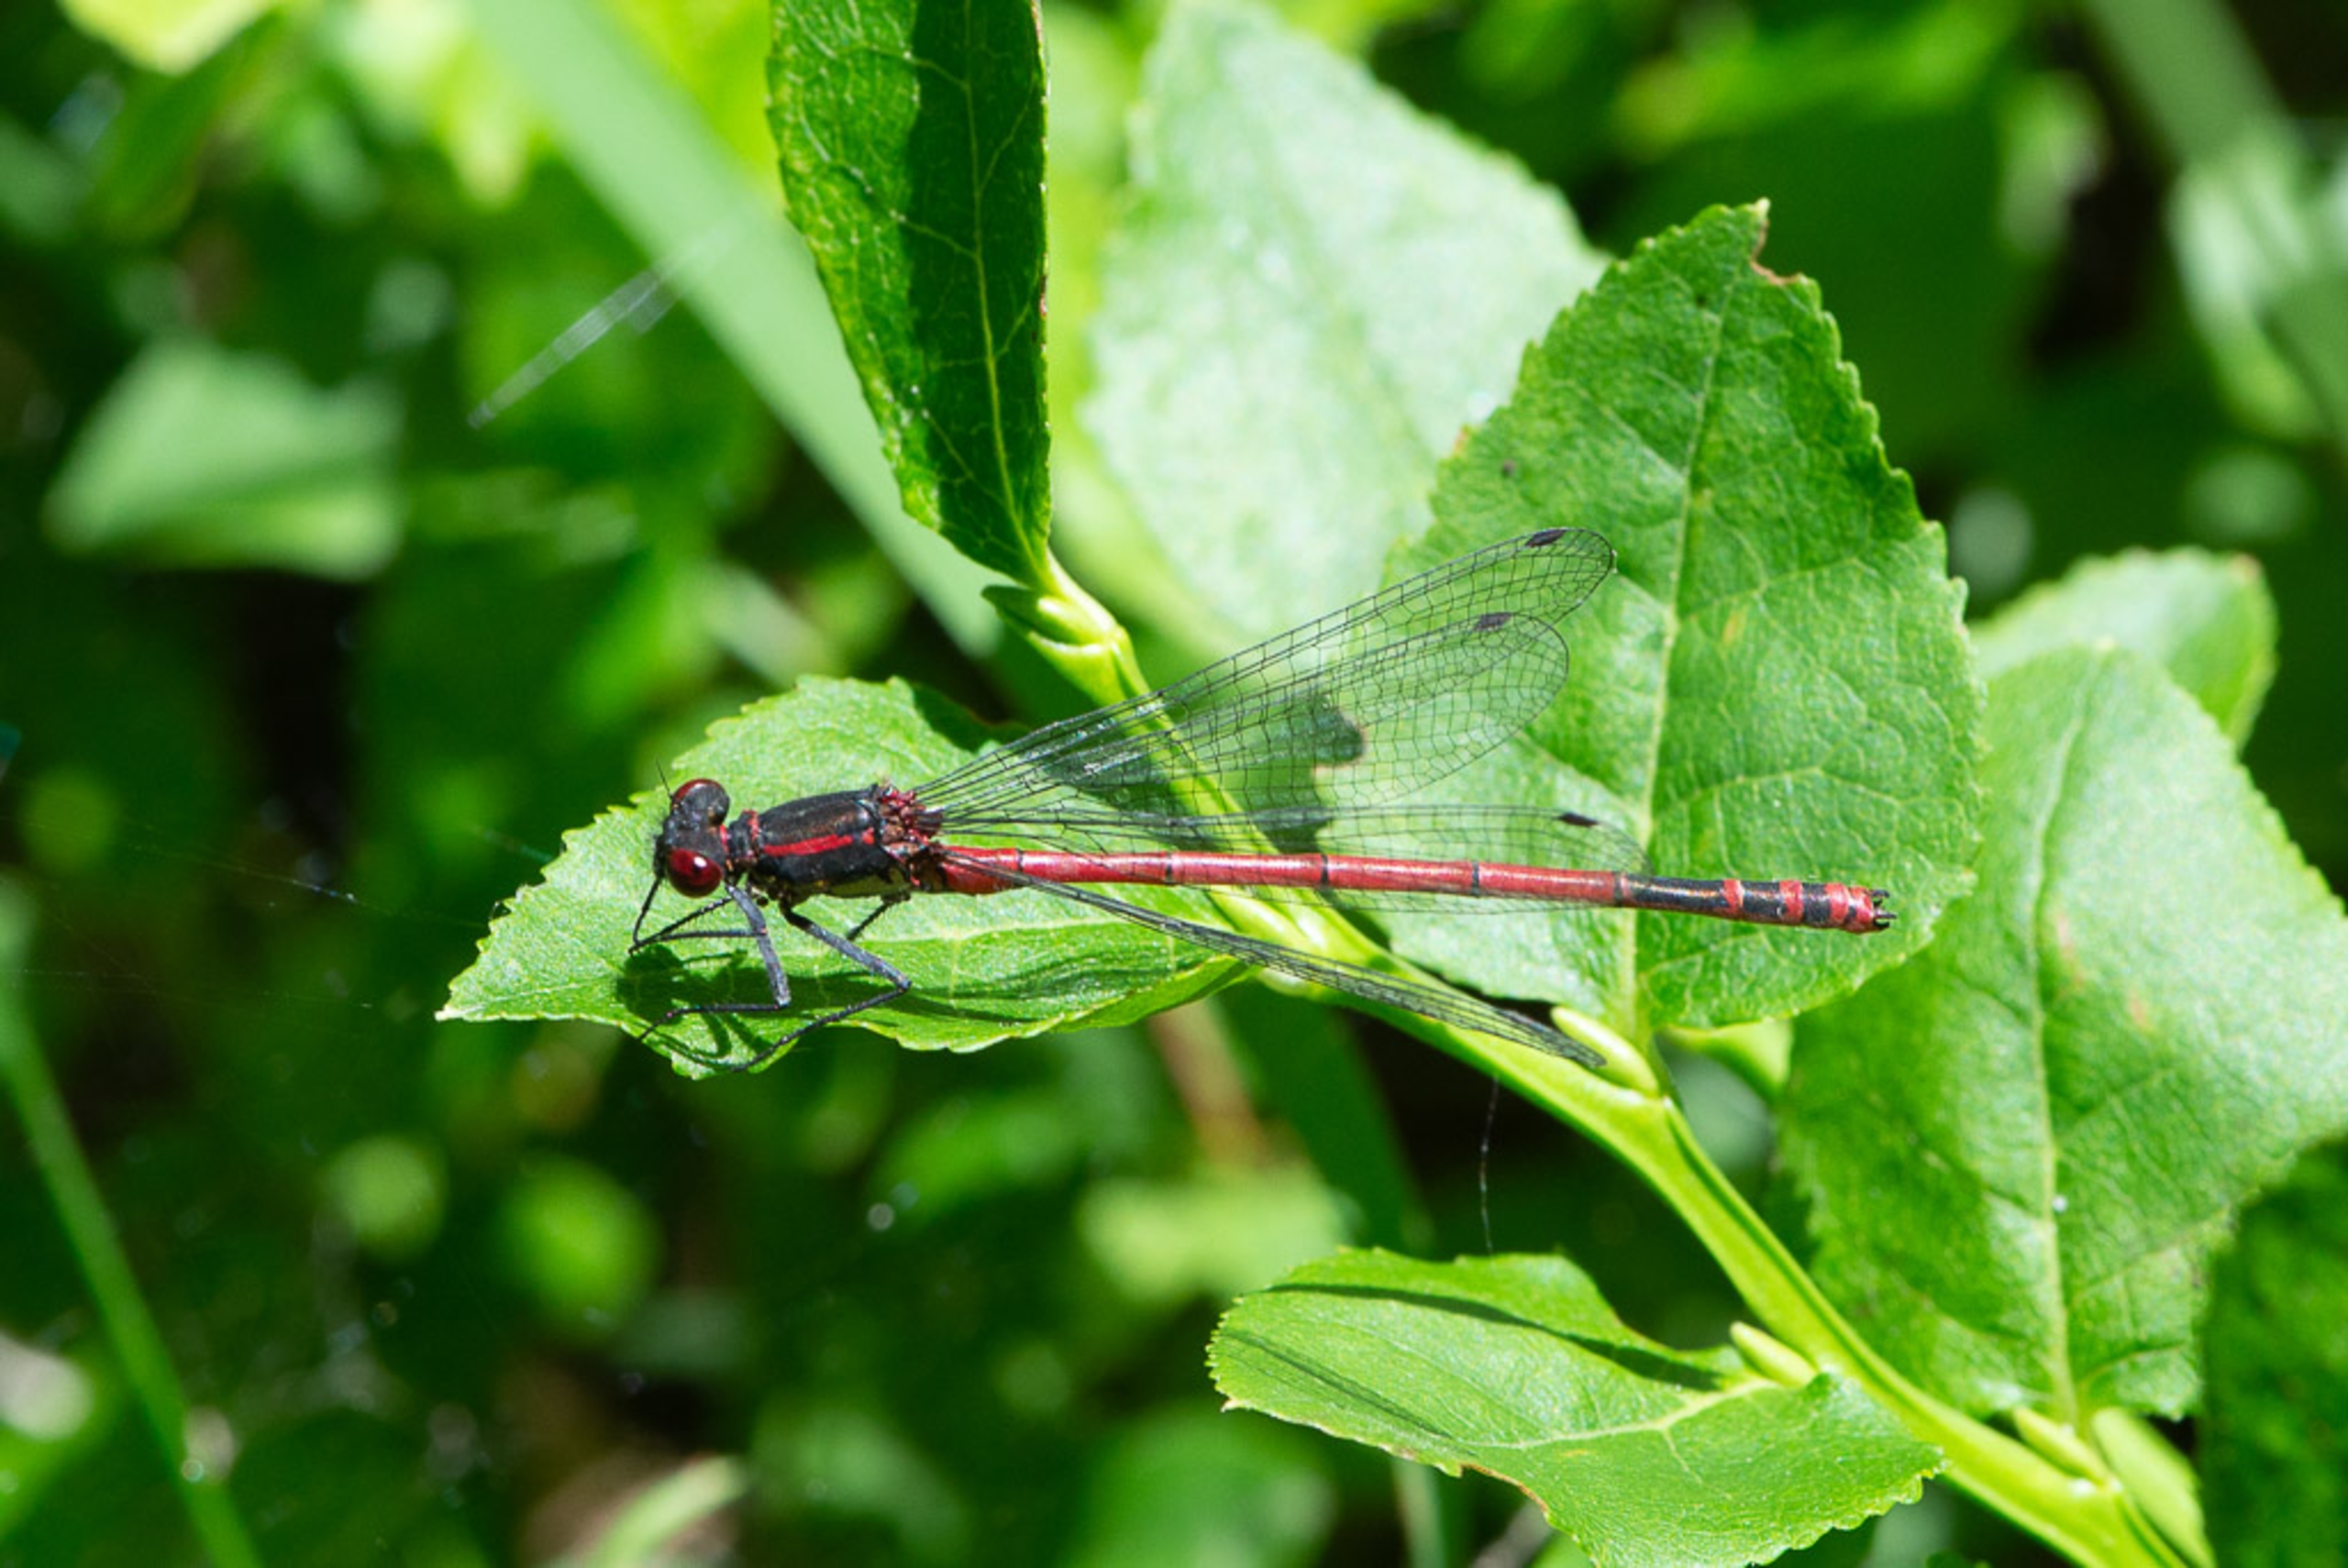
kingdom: Animalia
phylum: Arthropoda
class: Insecta
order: Odonata
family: Coenagrionidae
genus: Pyrrhosoma
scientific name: Pyrrhosoma nymphula
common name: Rød vandnymfe
